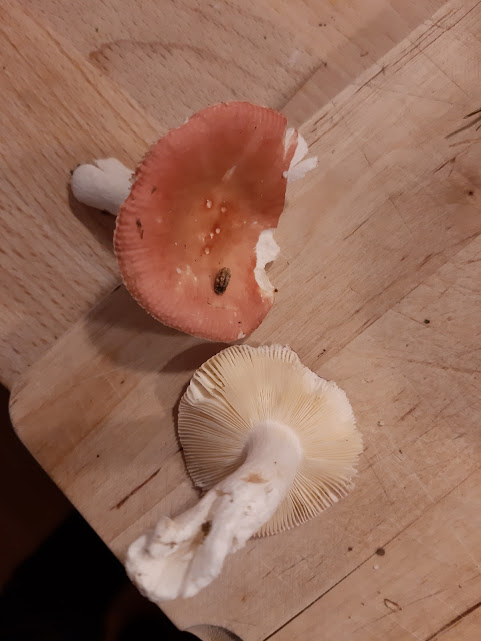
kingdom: Fungi
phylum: Basidiomycota
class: Agaricomycetes
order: Russulales
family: Russulaceae
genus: Russula
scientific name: Russula velenovskyi
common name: orangerød skørhat
